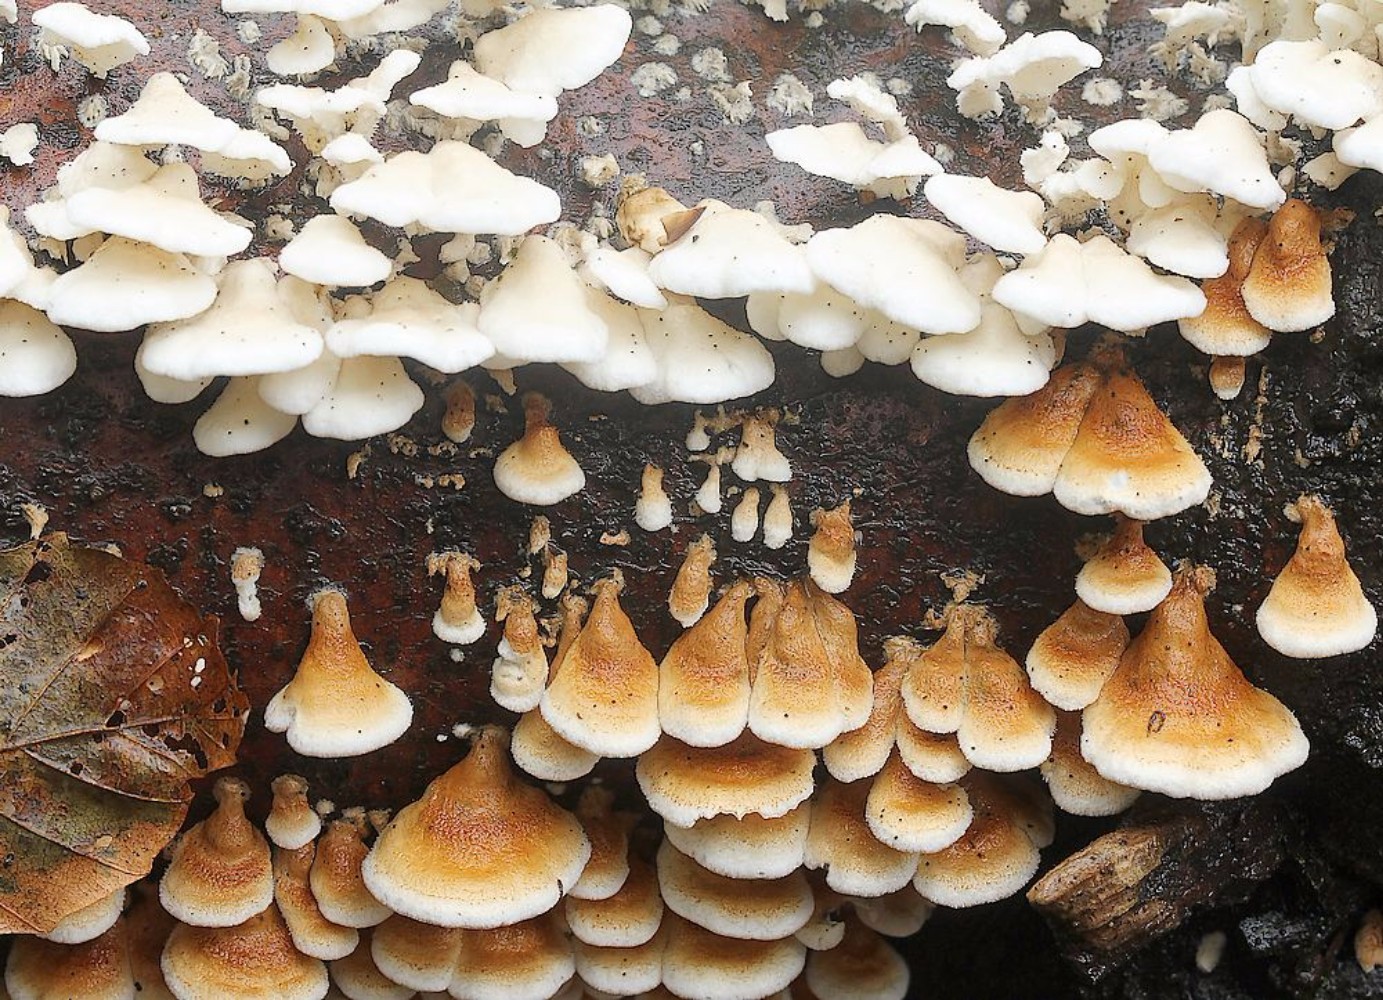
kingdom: Fungi
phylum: Basidiomycota
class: Agaricomycetes
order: Amylocorticiales
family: Amylocorticiaceae
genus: Plicaturopsis
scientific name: Plicaturopsis crispa
